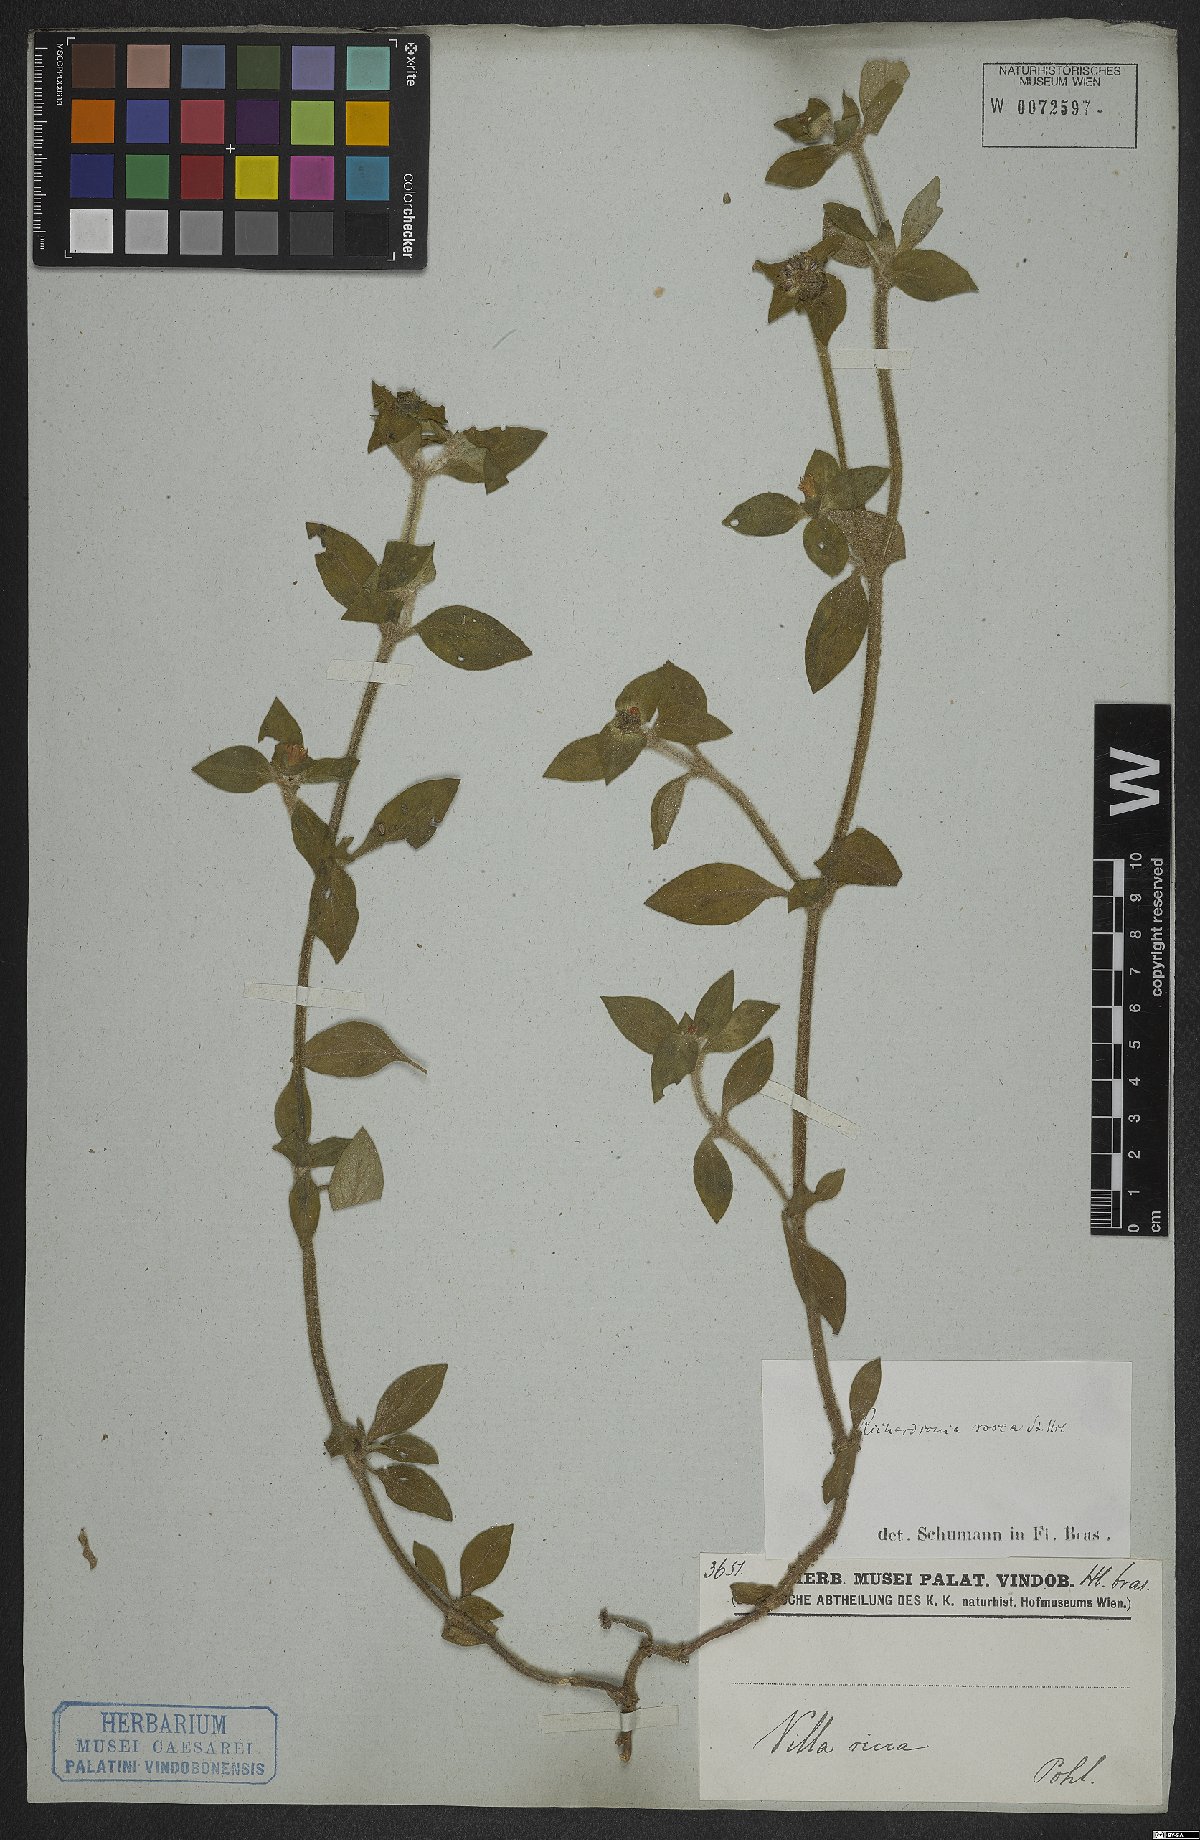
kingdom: Plantae
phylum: Tracheophyta
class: Magnoliopsida
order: Gentianales
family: Rubiaceae
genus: Richardia
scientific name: Richardia brasiliensis
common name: Tropical mexican clover
